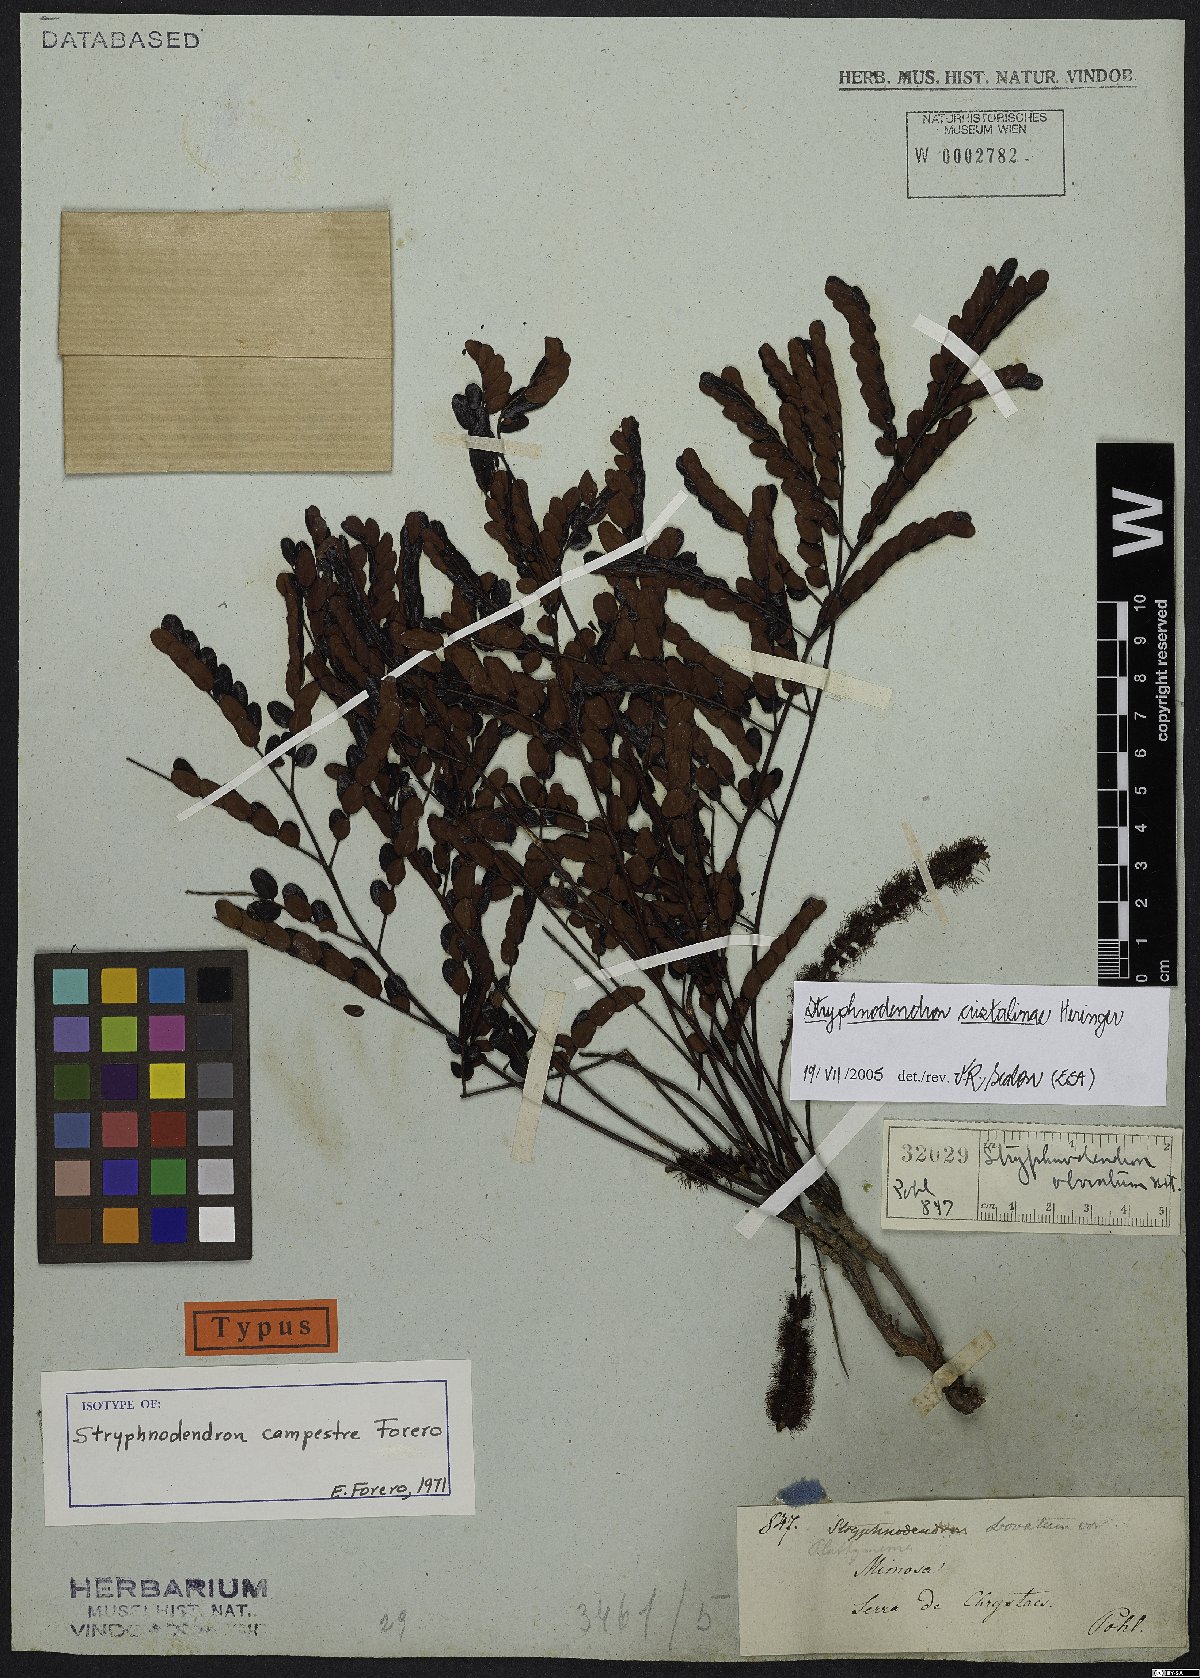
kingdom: Plantae
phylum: Tracheophyta
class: Magnoliopsida
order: Fabales
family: Fabaceae
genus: Stryphnodendron
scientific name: Stryphnodendron cristalinae
